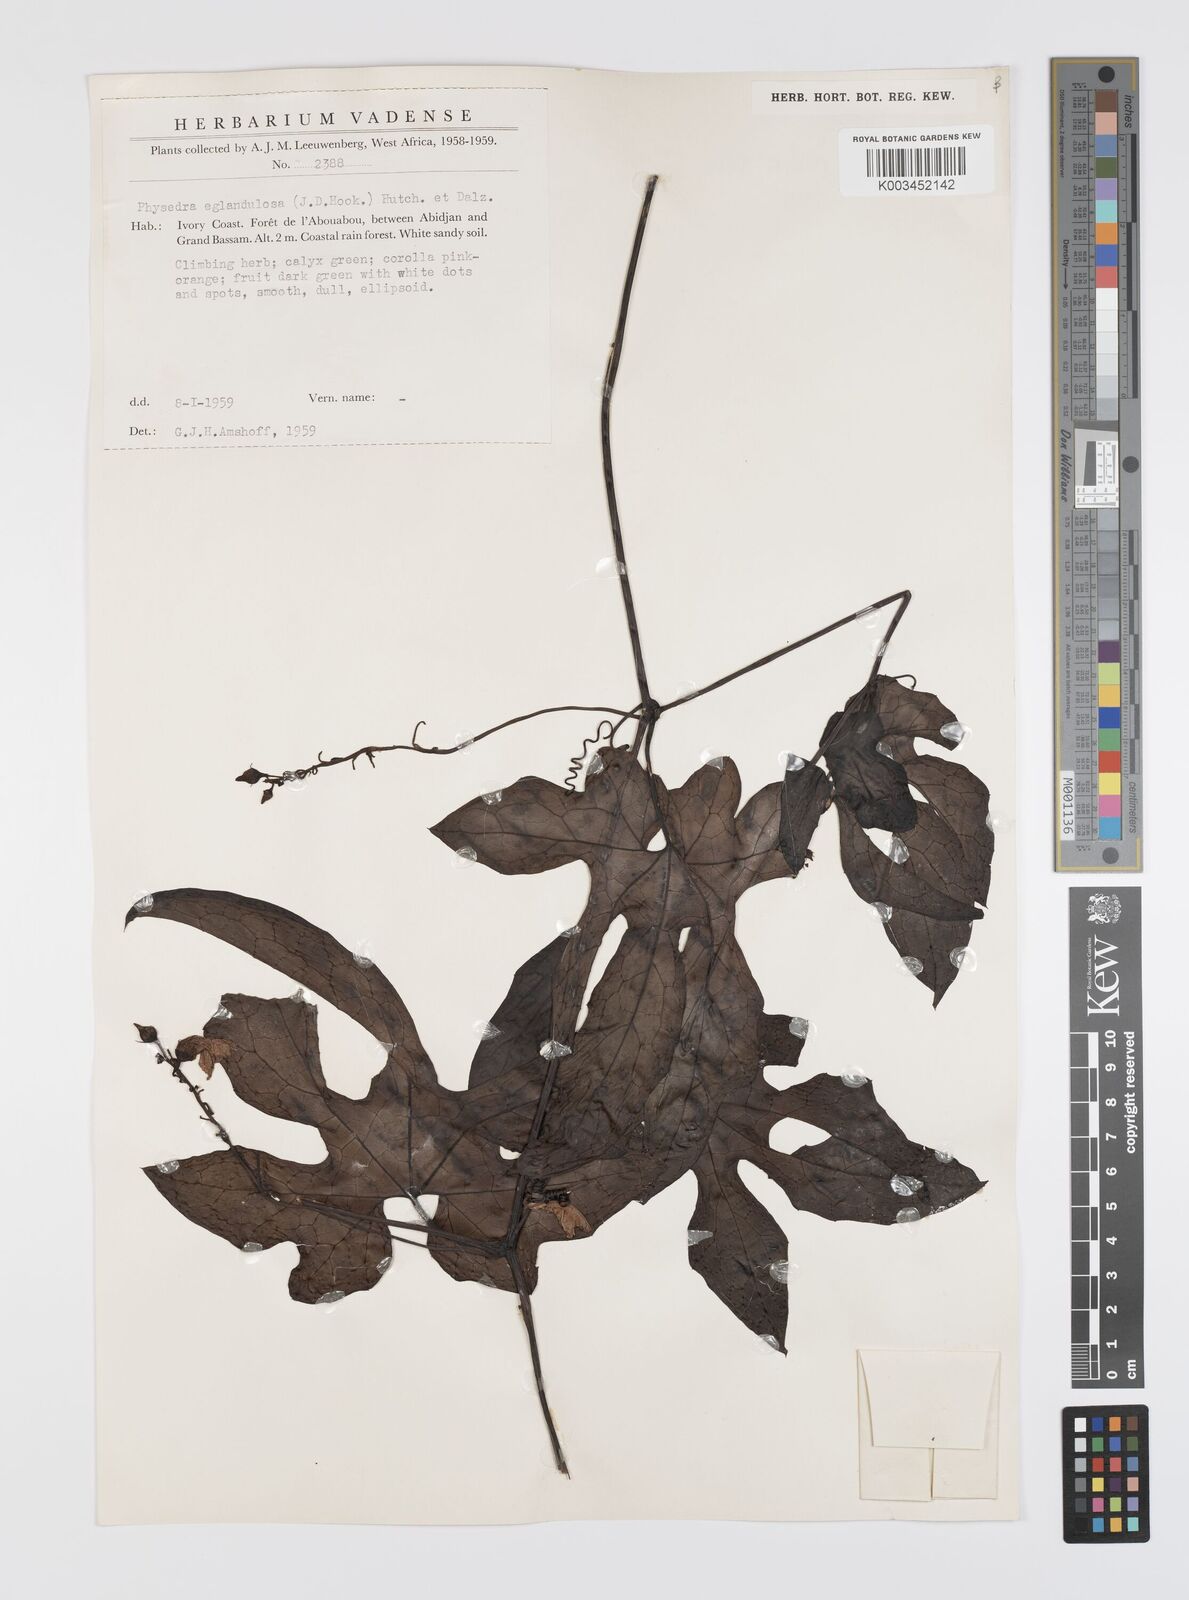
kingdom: Plantae
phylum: Tracheophyta
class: Magnoliopsida
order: Cucurbitales
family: Cucurbitaceae
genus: Ruthalicia
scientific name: Ruthalicia eglandulosa
